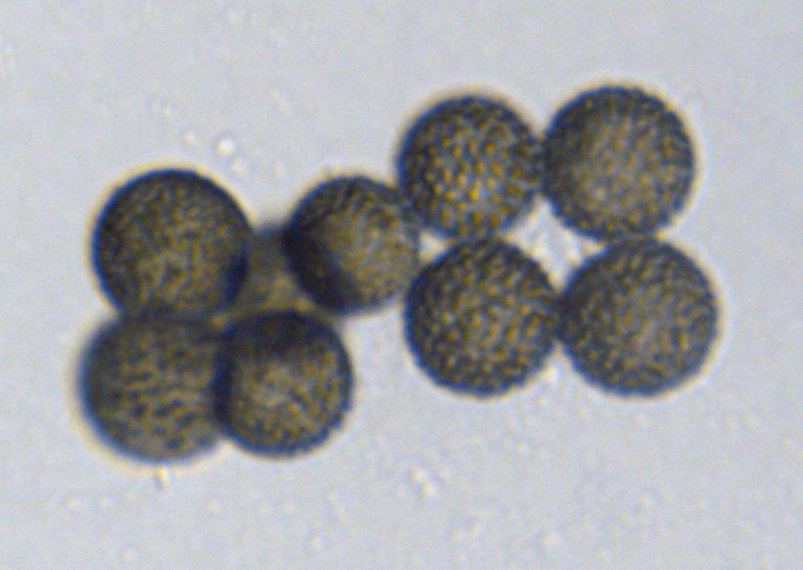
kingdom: Fungi
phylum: Ascomycota
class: Dothideomycetes
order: Pleosporales
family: Periconiaceae
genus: Periconia
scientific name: Periconia
